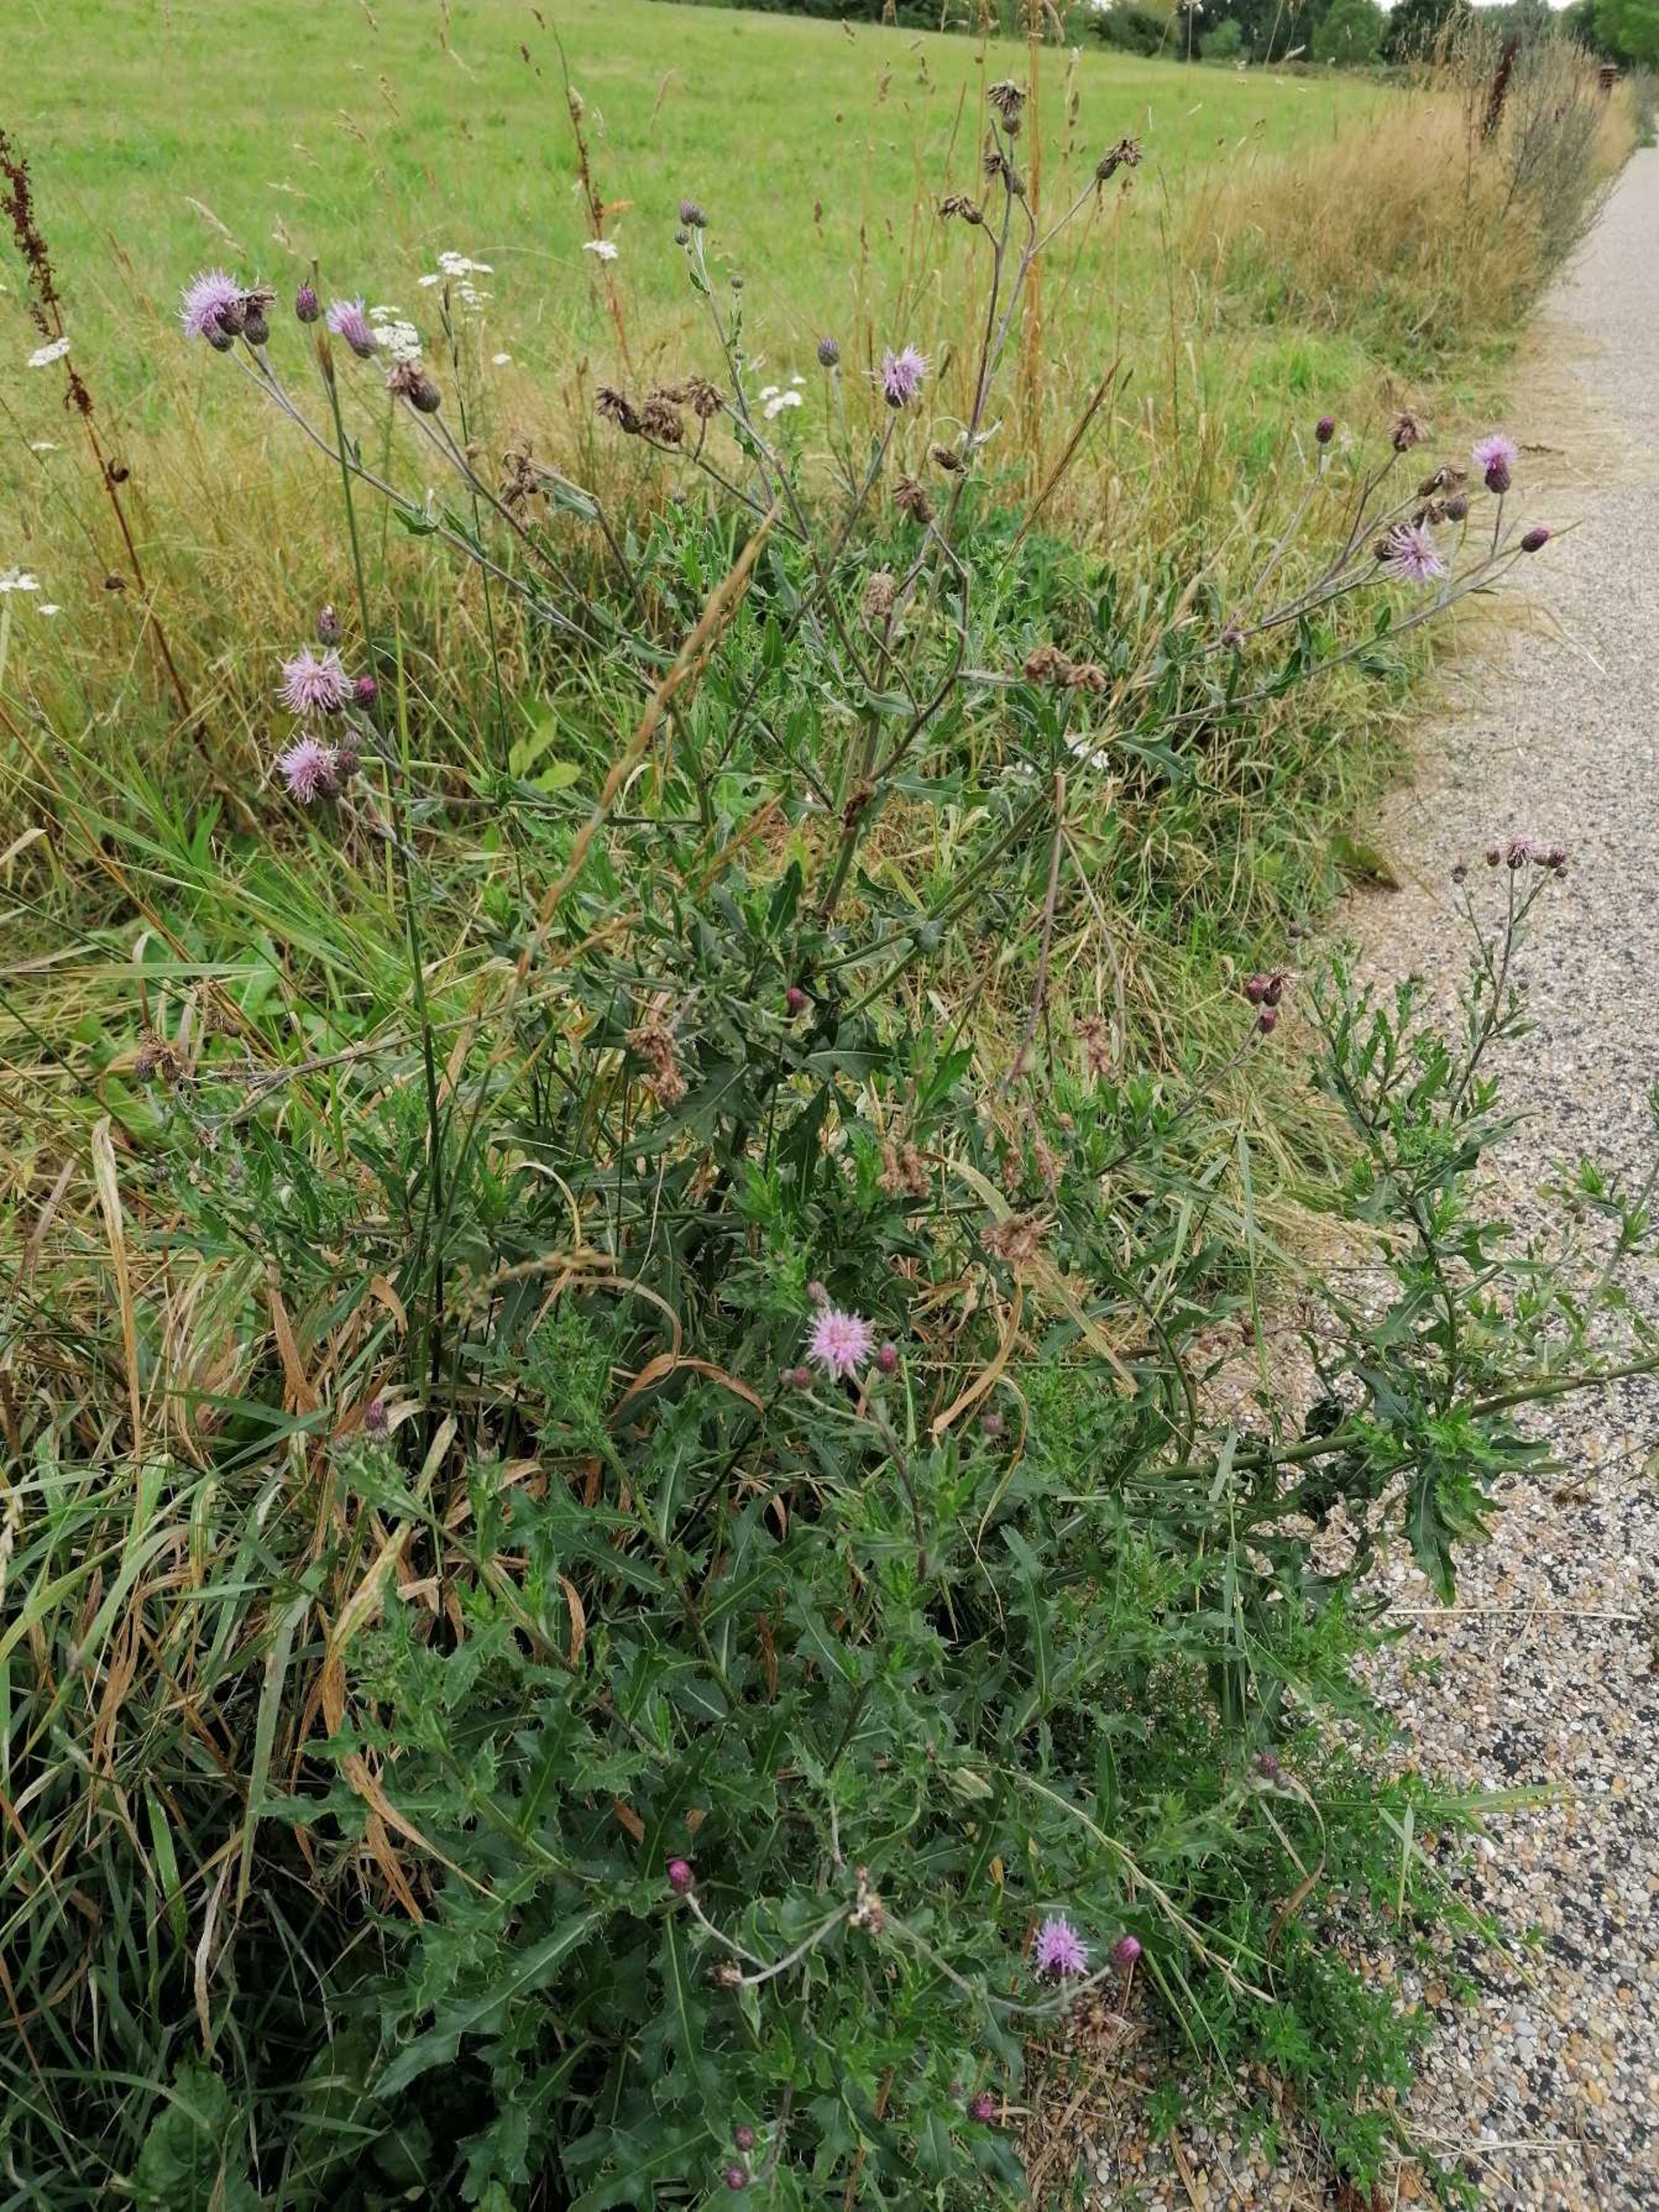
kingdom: Plantae
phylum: Tracheophyta
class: Magnoliopsida
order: Asterales
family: Asteraceae
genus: Cirsium
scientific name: Cirsium arvense
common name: Ager-tidsel
